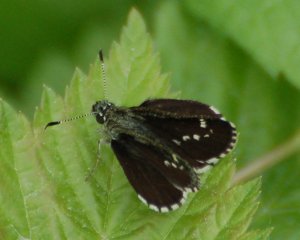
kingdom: Animalia
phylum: Arthropoda
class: Insecta
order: Lepidoptera
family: Hesperiidae
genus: Mastor
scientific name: Mastor hegon
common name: Pepper and Salt Skipper
